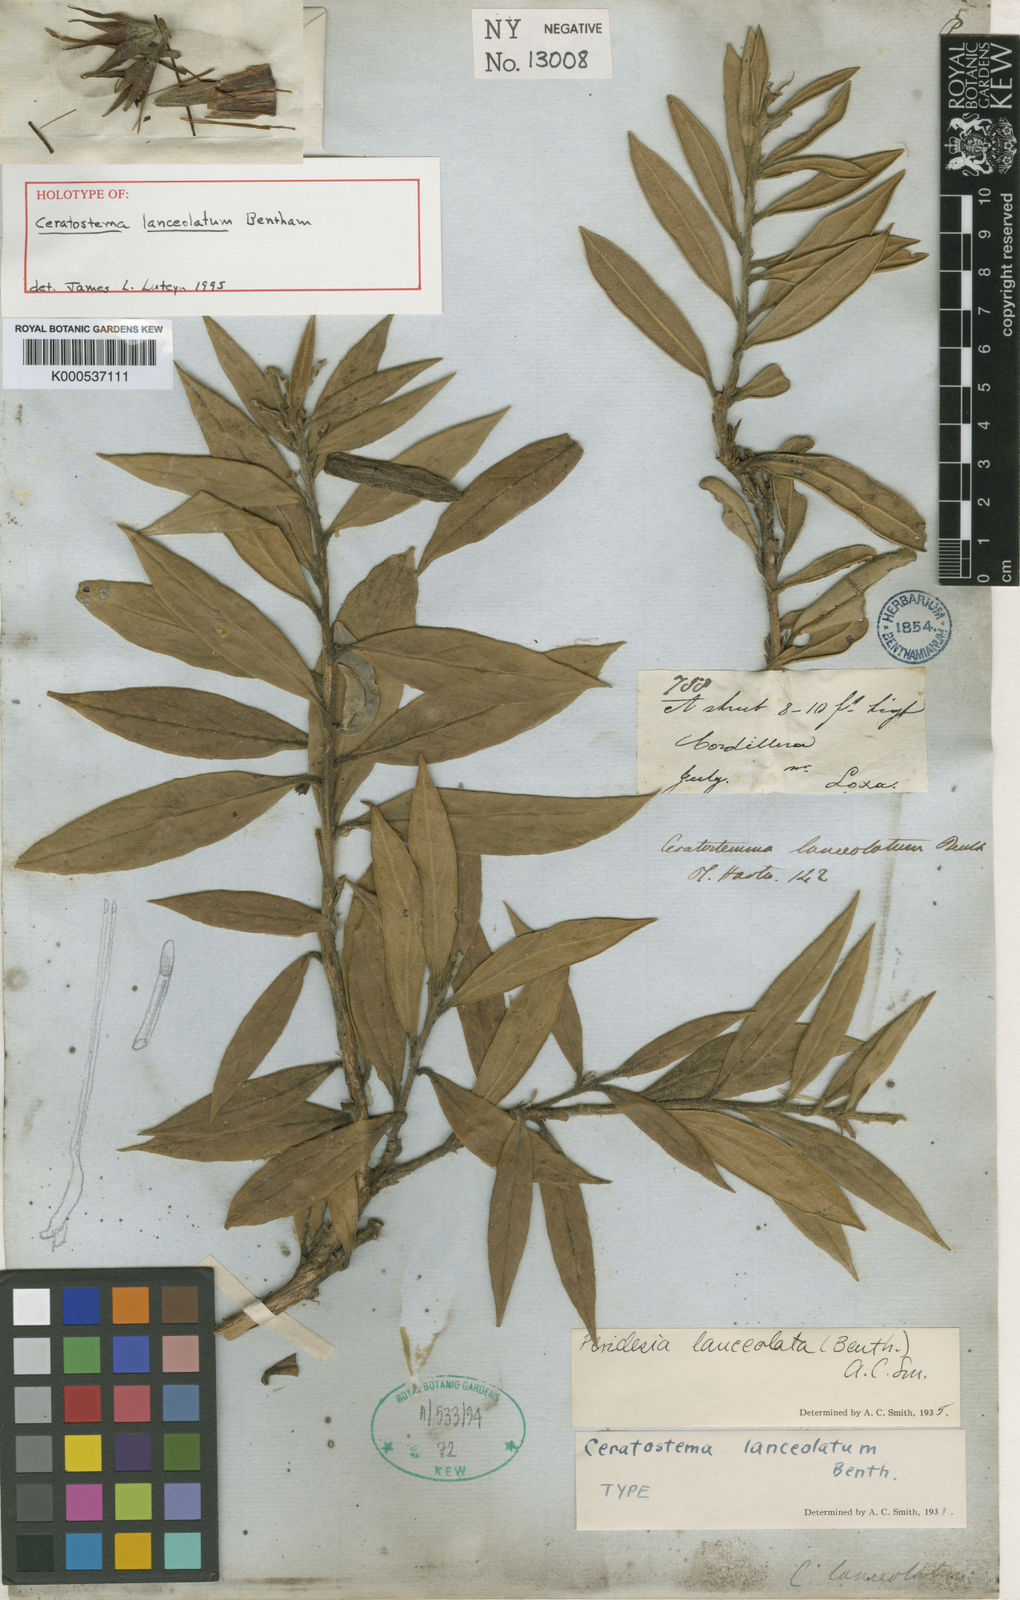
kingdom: Plantae
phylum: Tracheophyta
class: Magnoliopsida
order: Ericales
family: Ericaceae
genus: Ceratostema
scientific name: Ceratostema lanceolatum
